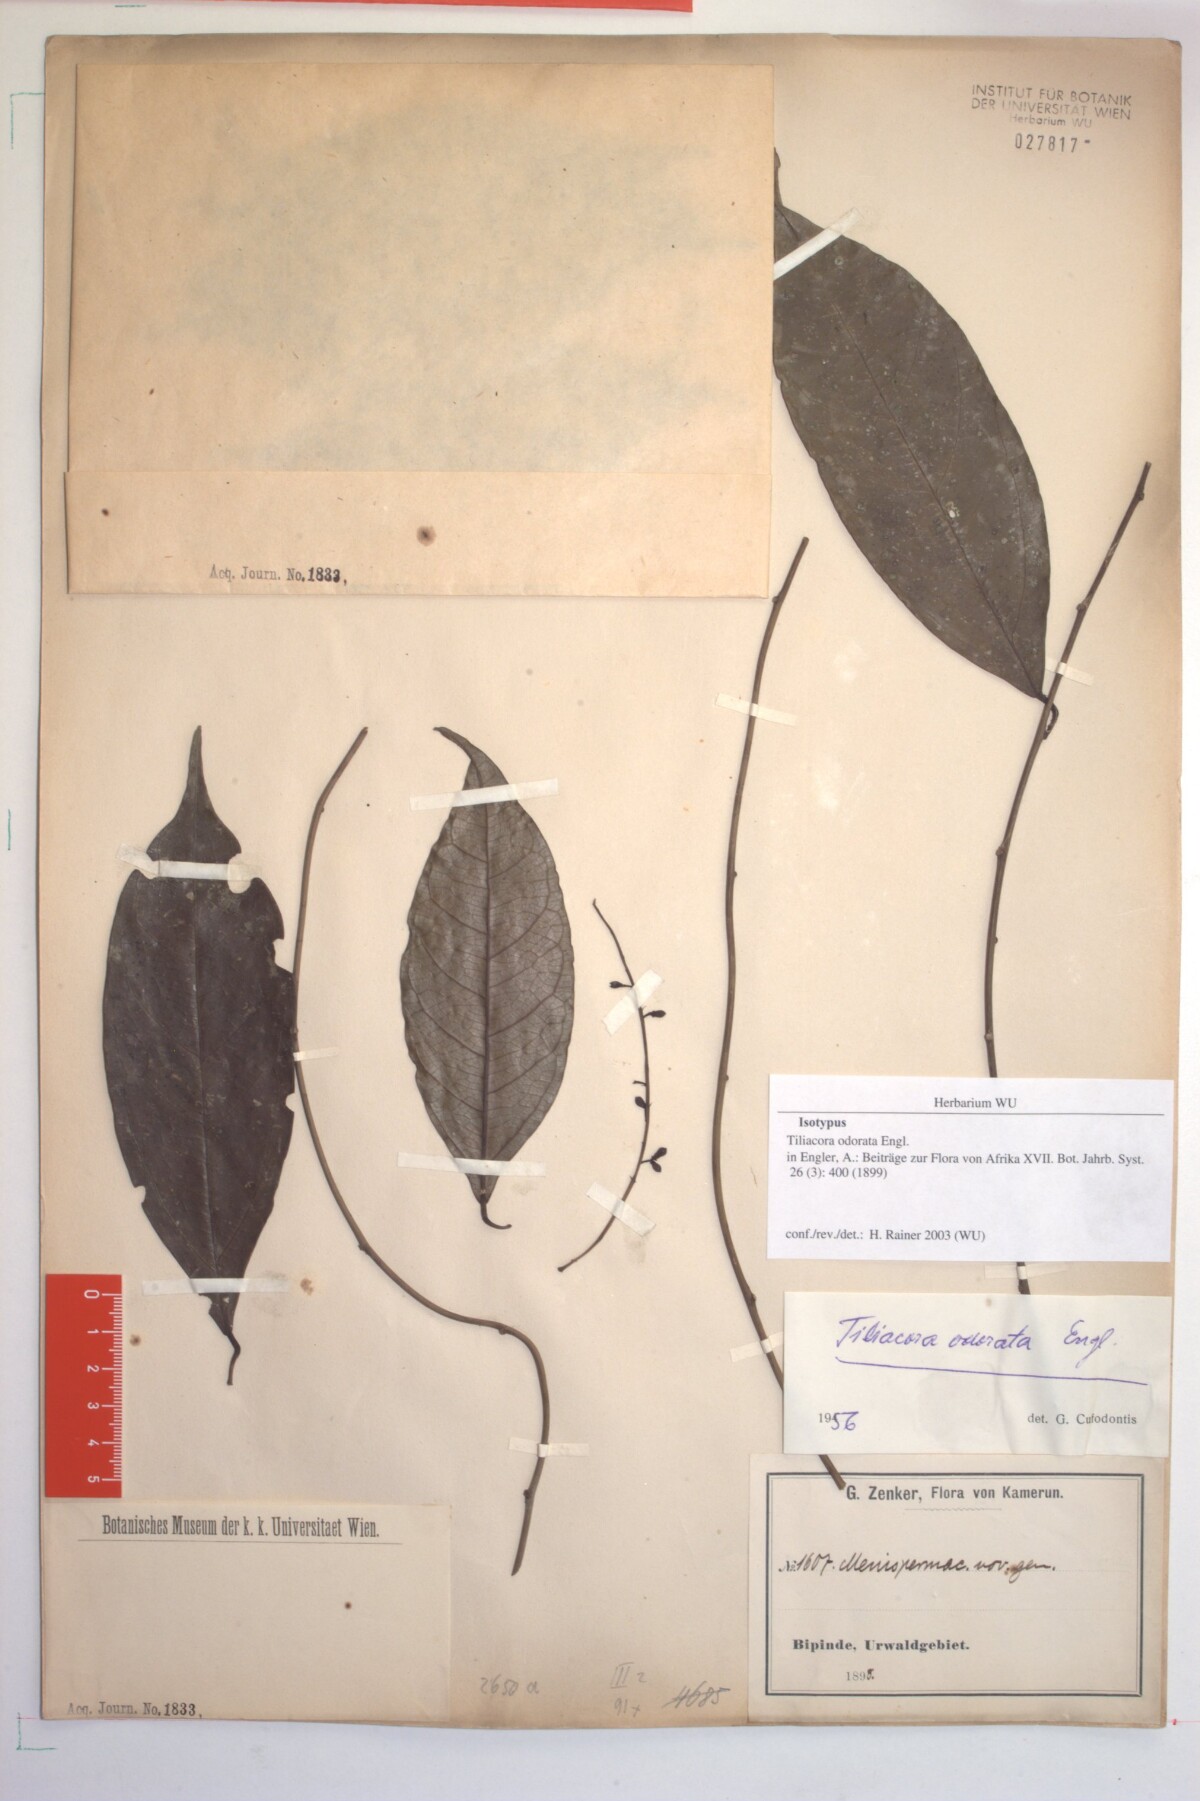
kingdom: Plantae
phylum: Tracheophyta
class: Magnoliopsida
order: Ranunculales
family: Menispermaceae
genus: Tiliacora
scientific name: Tiliacora odorata
